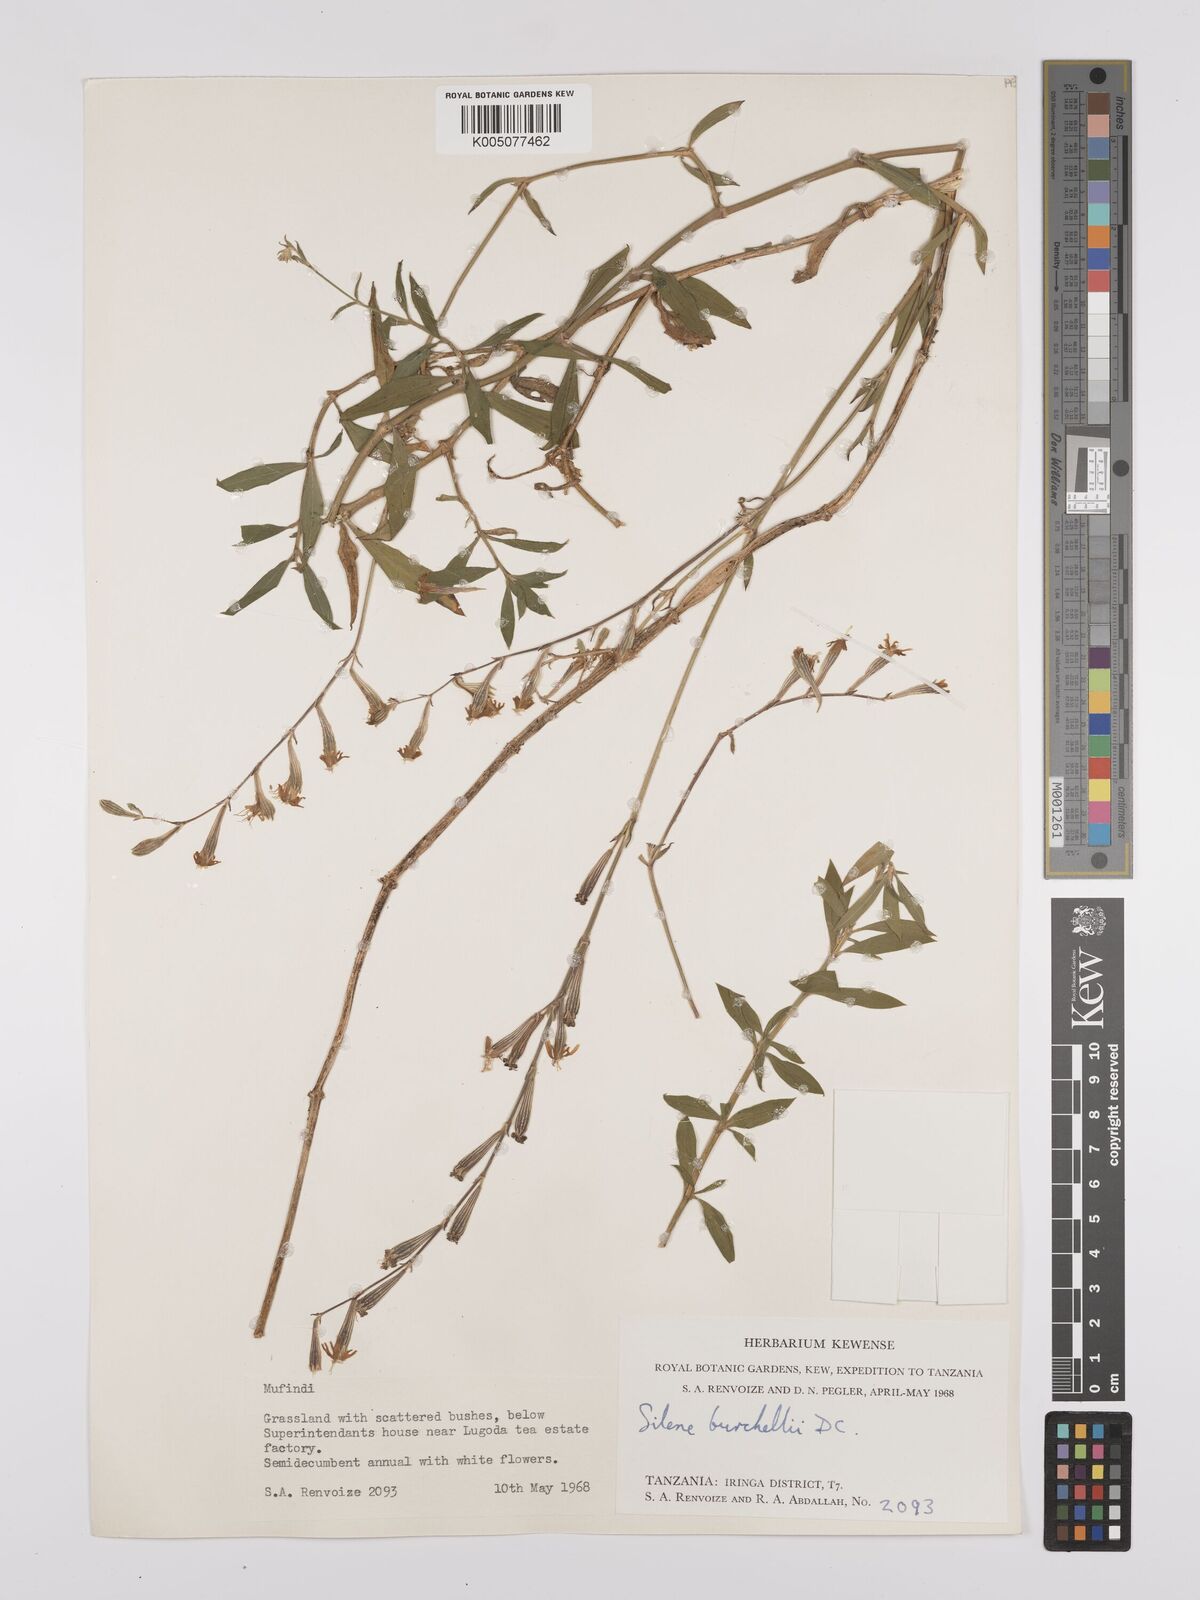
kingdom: Plantae
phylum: Tracheophyta
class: Magnoliopsida
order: Caryophyllales
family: Caryophyllaceae
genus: Silene
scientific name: Silene burchellii
